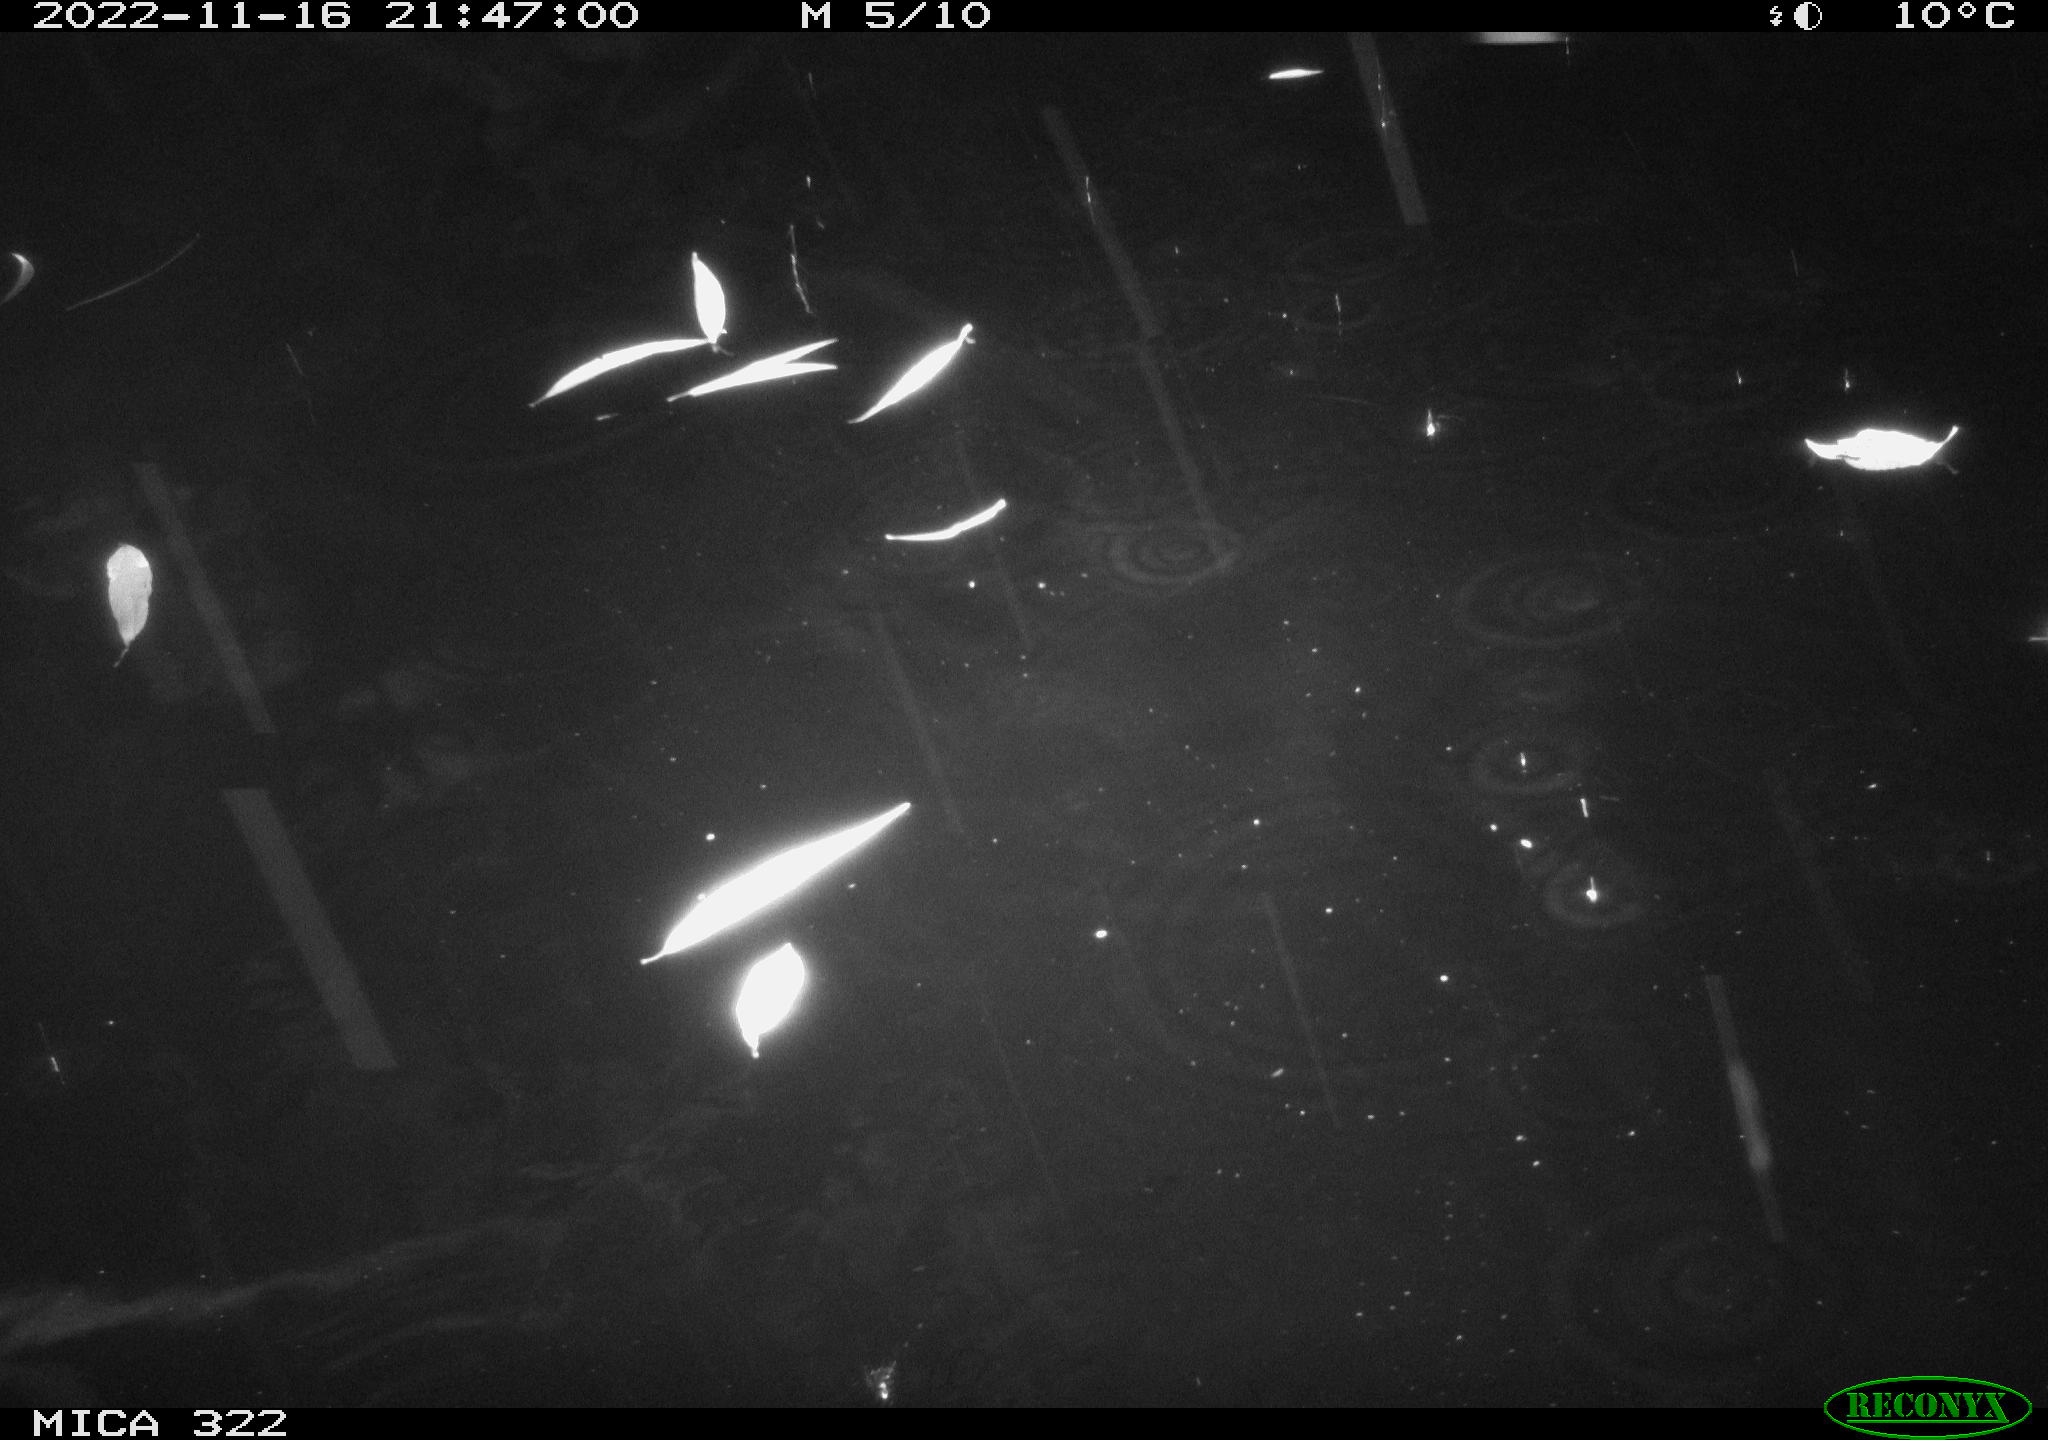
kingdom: Animalia
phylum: Chordata
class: Mammalia
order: Rodentia
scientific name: Rodentia
